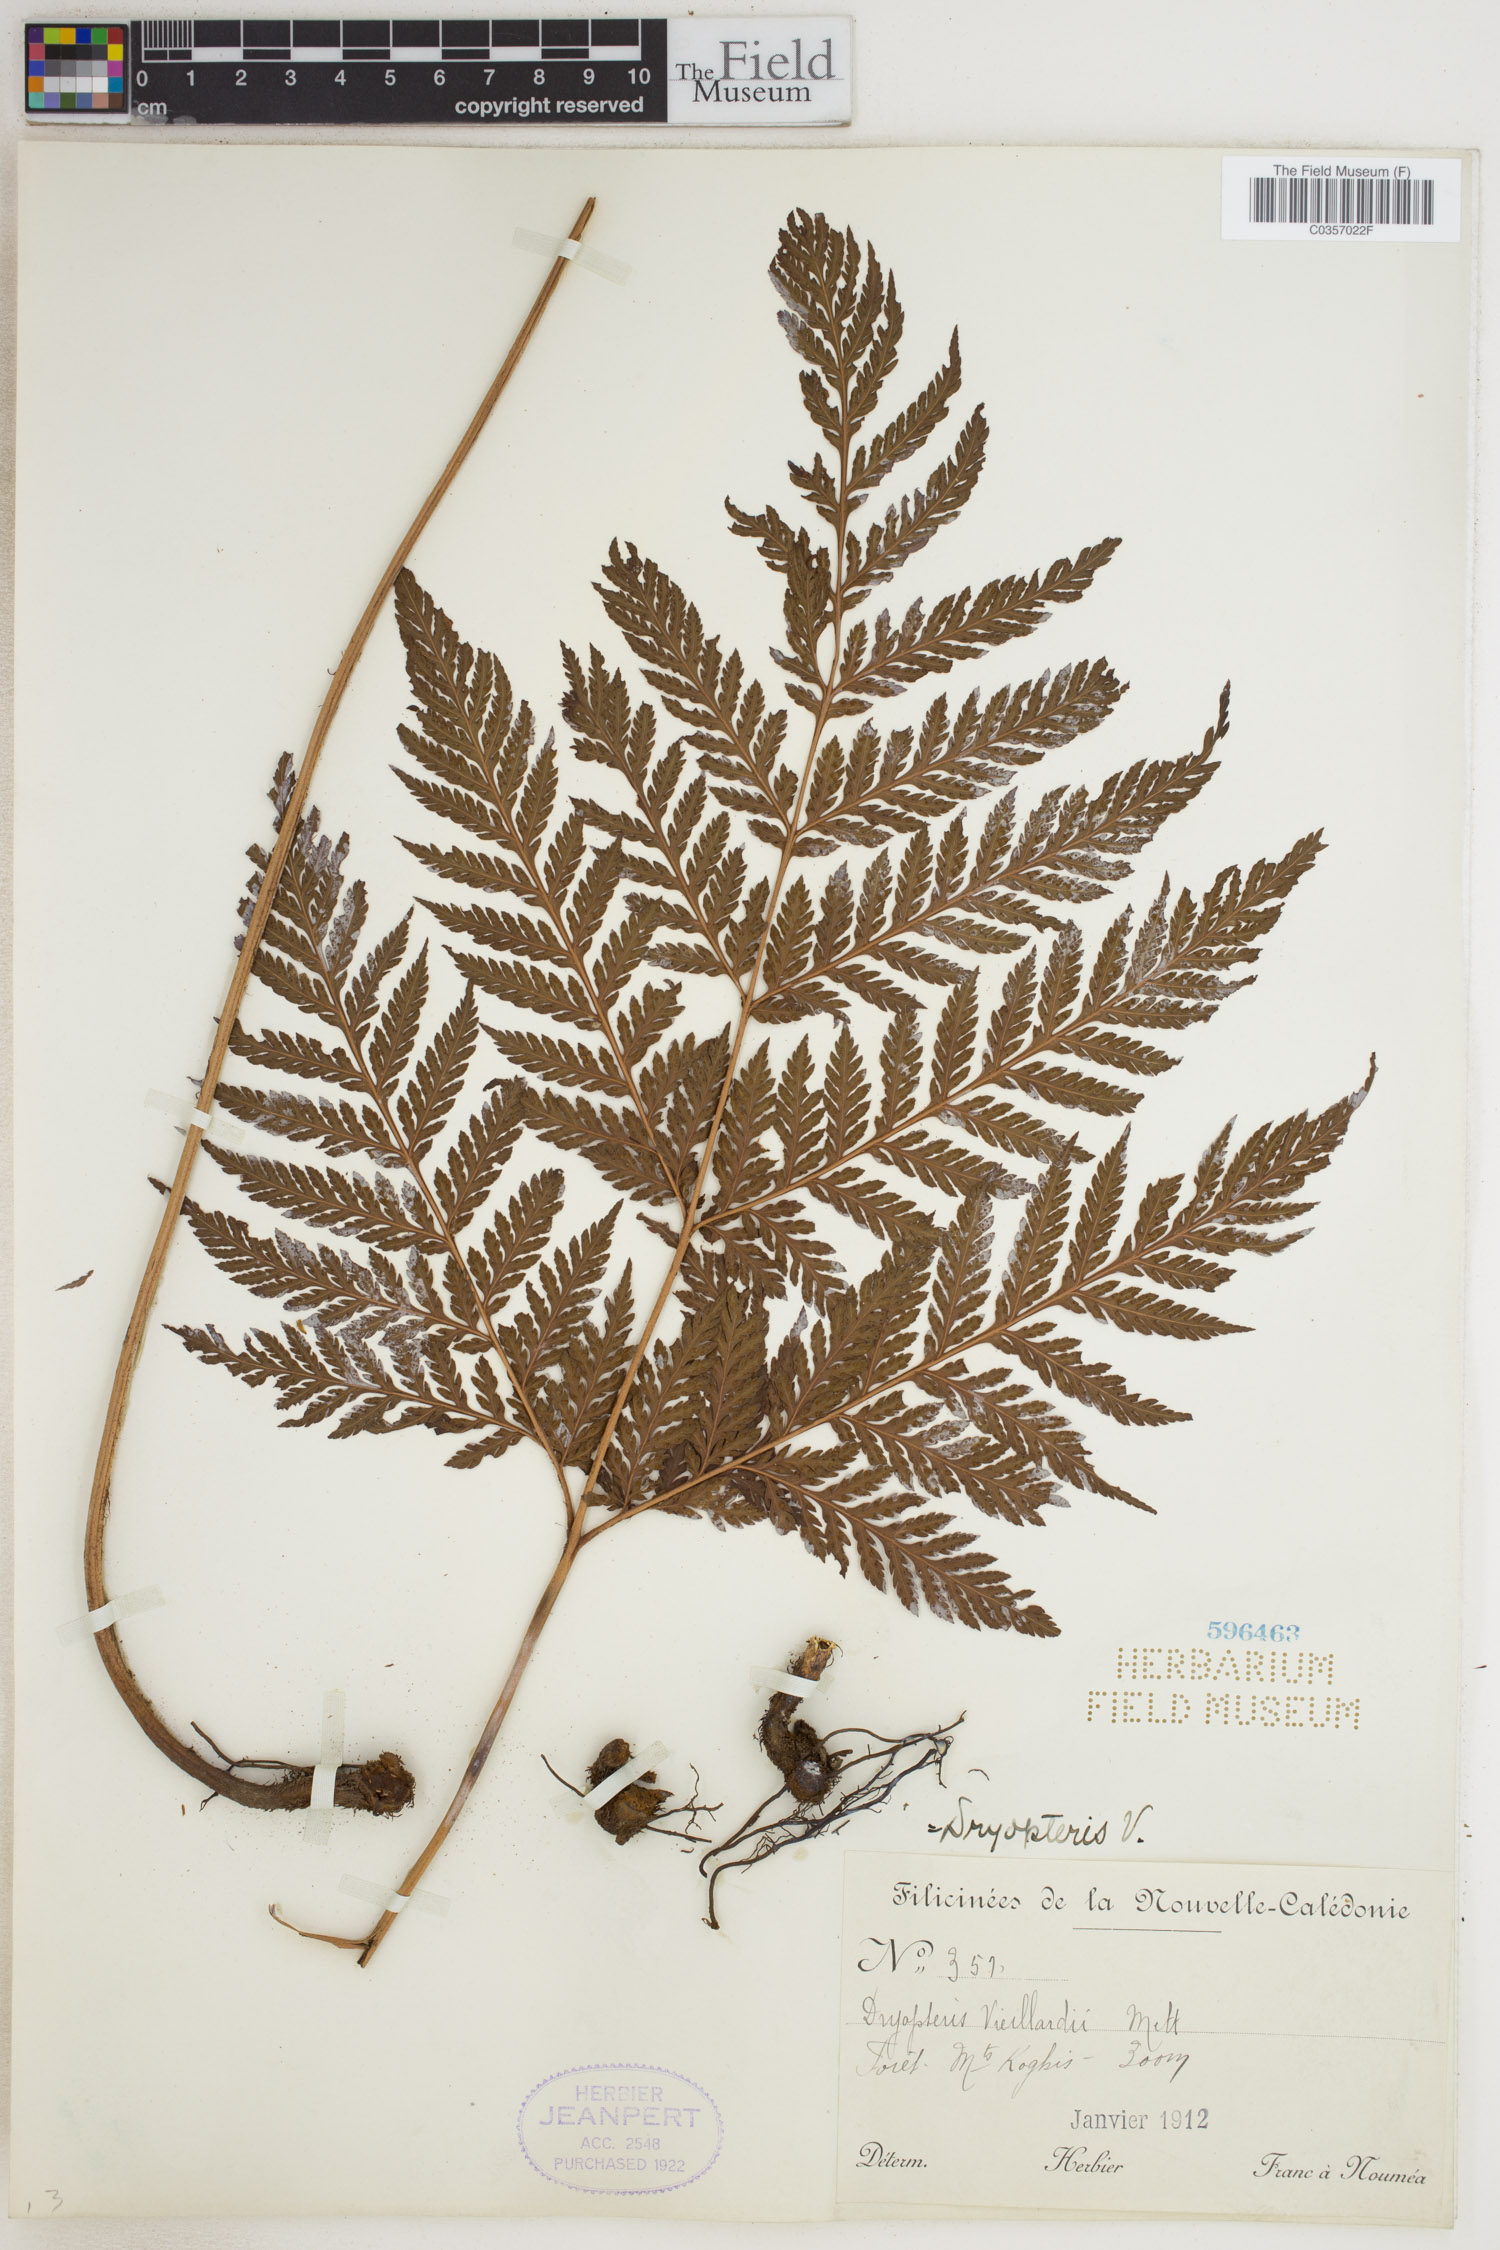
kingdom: Plantae
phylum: Tracheophyta
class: Polypodiopsida
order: Polypodiales
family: Dryopteridaceae
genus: Lastreopsis
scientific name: Lastreopsis vieillardii
